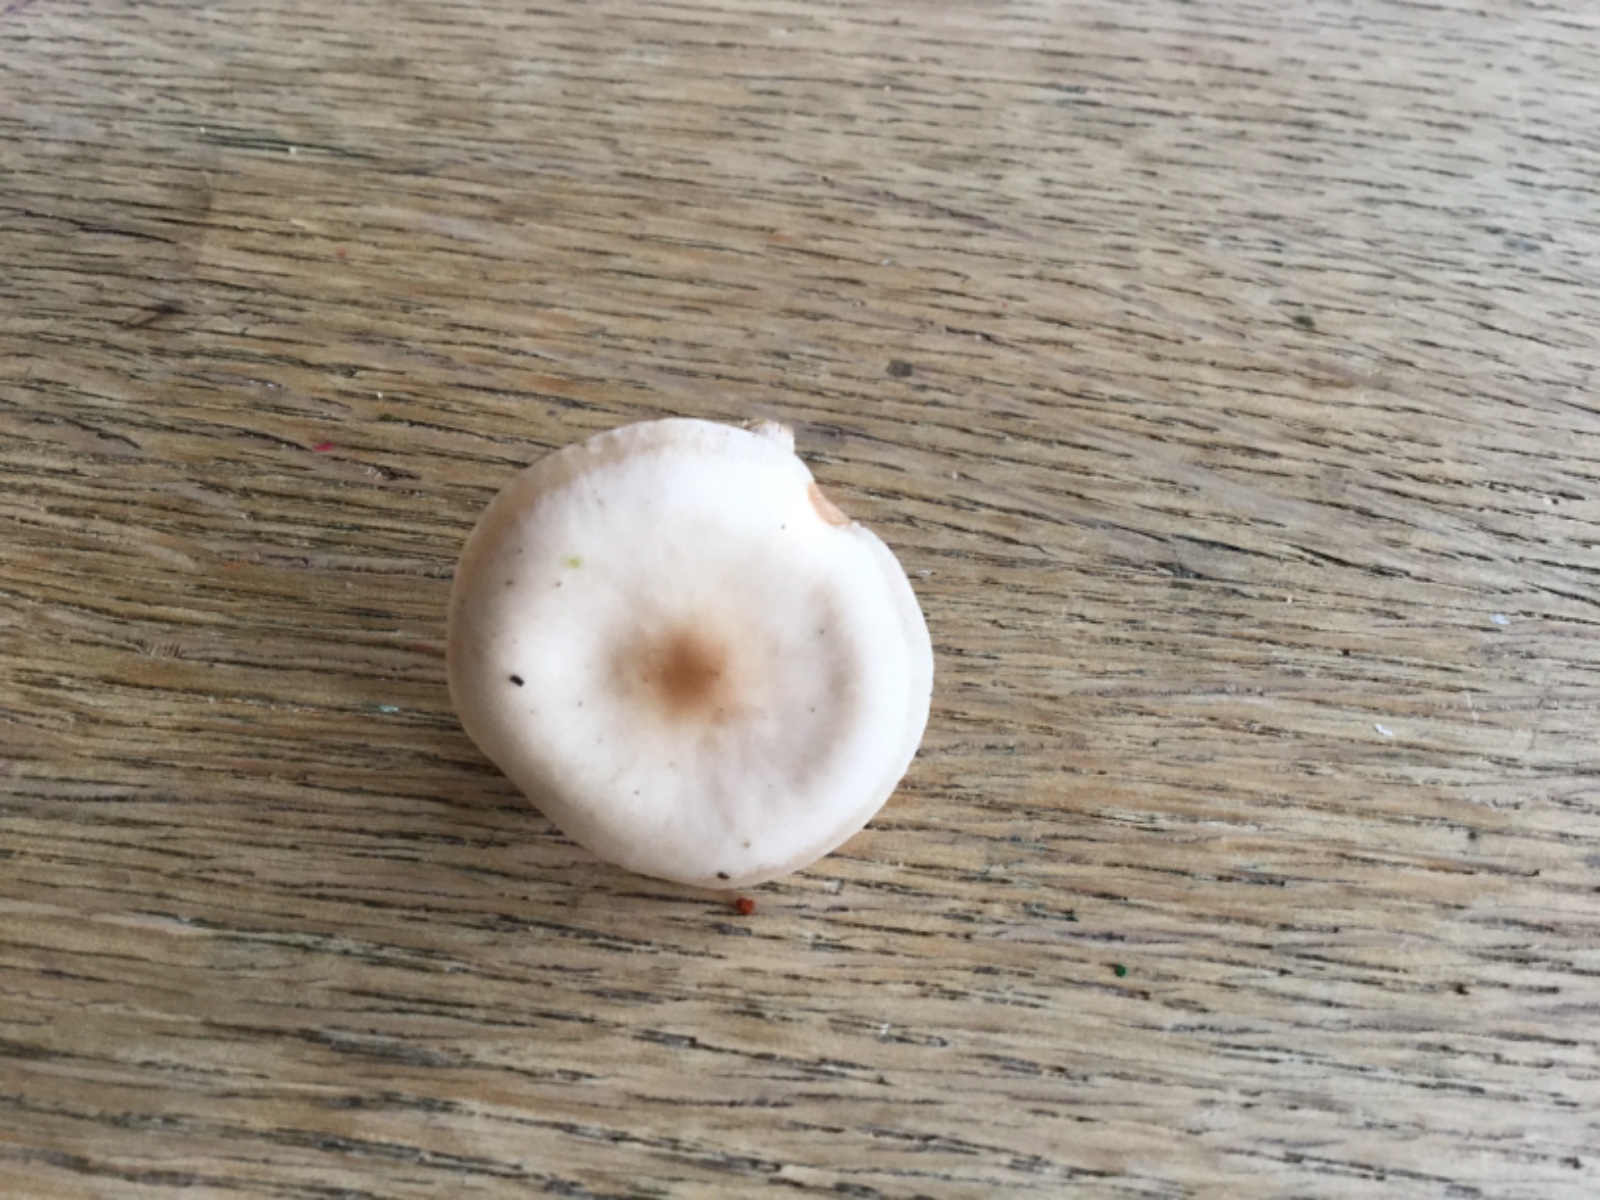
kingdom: Fungi
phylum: Basidiomycota
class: Agaricomycetes
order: Agaricales
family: Tricholomataceae
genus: Clitocybe
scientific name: Clitocybe fragrans
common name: vellugtende tragthat
